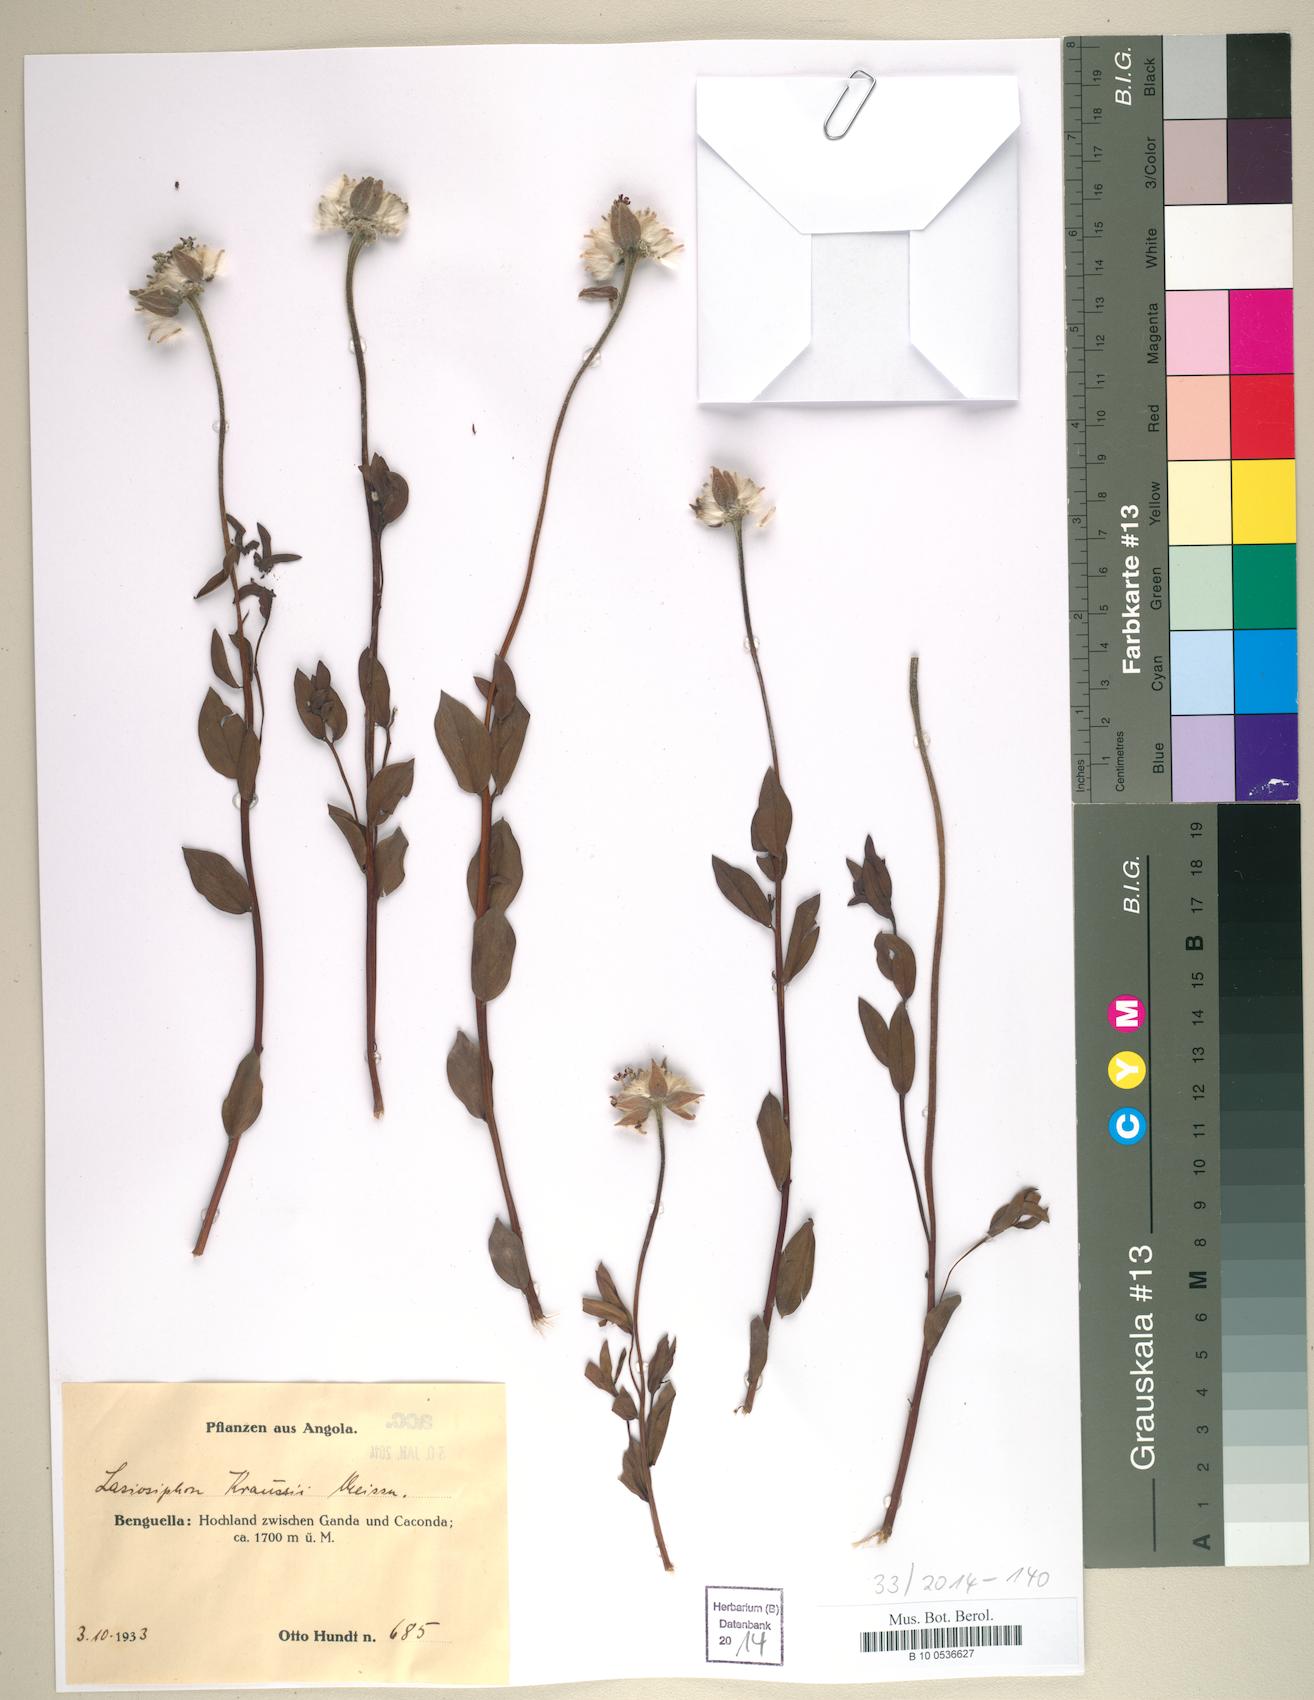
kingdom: Plantae
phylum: Tracheophyta
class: Magnoliopsida
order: Malvales
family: Thymelaeaceae
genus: Gnidia
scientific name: Gnidia kraussiana
